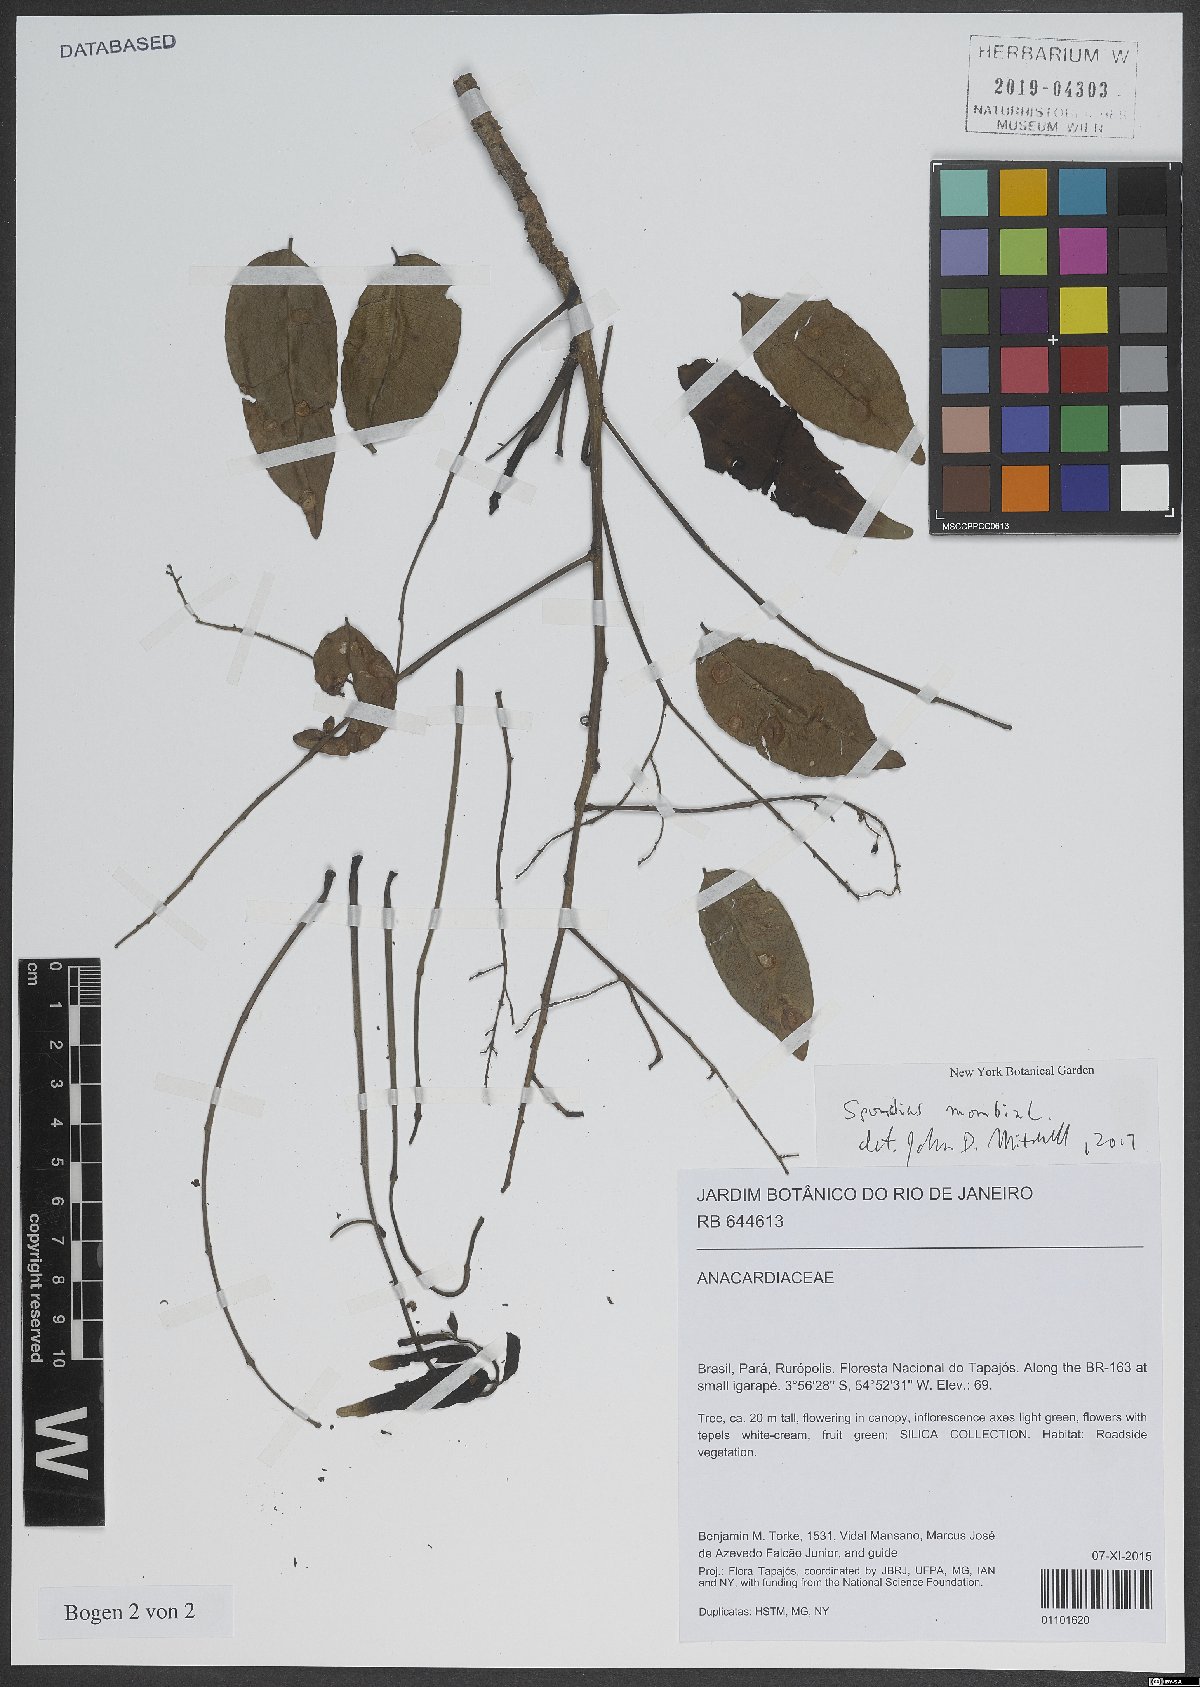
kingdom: Plantae
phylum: Tracheophyta
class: Magnoliopsida
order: Sapindales
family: Anacardiaceae
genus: Spondias
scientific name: Spondias mombin
